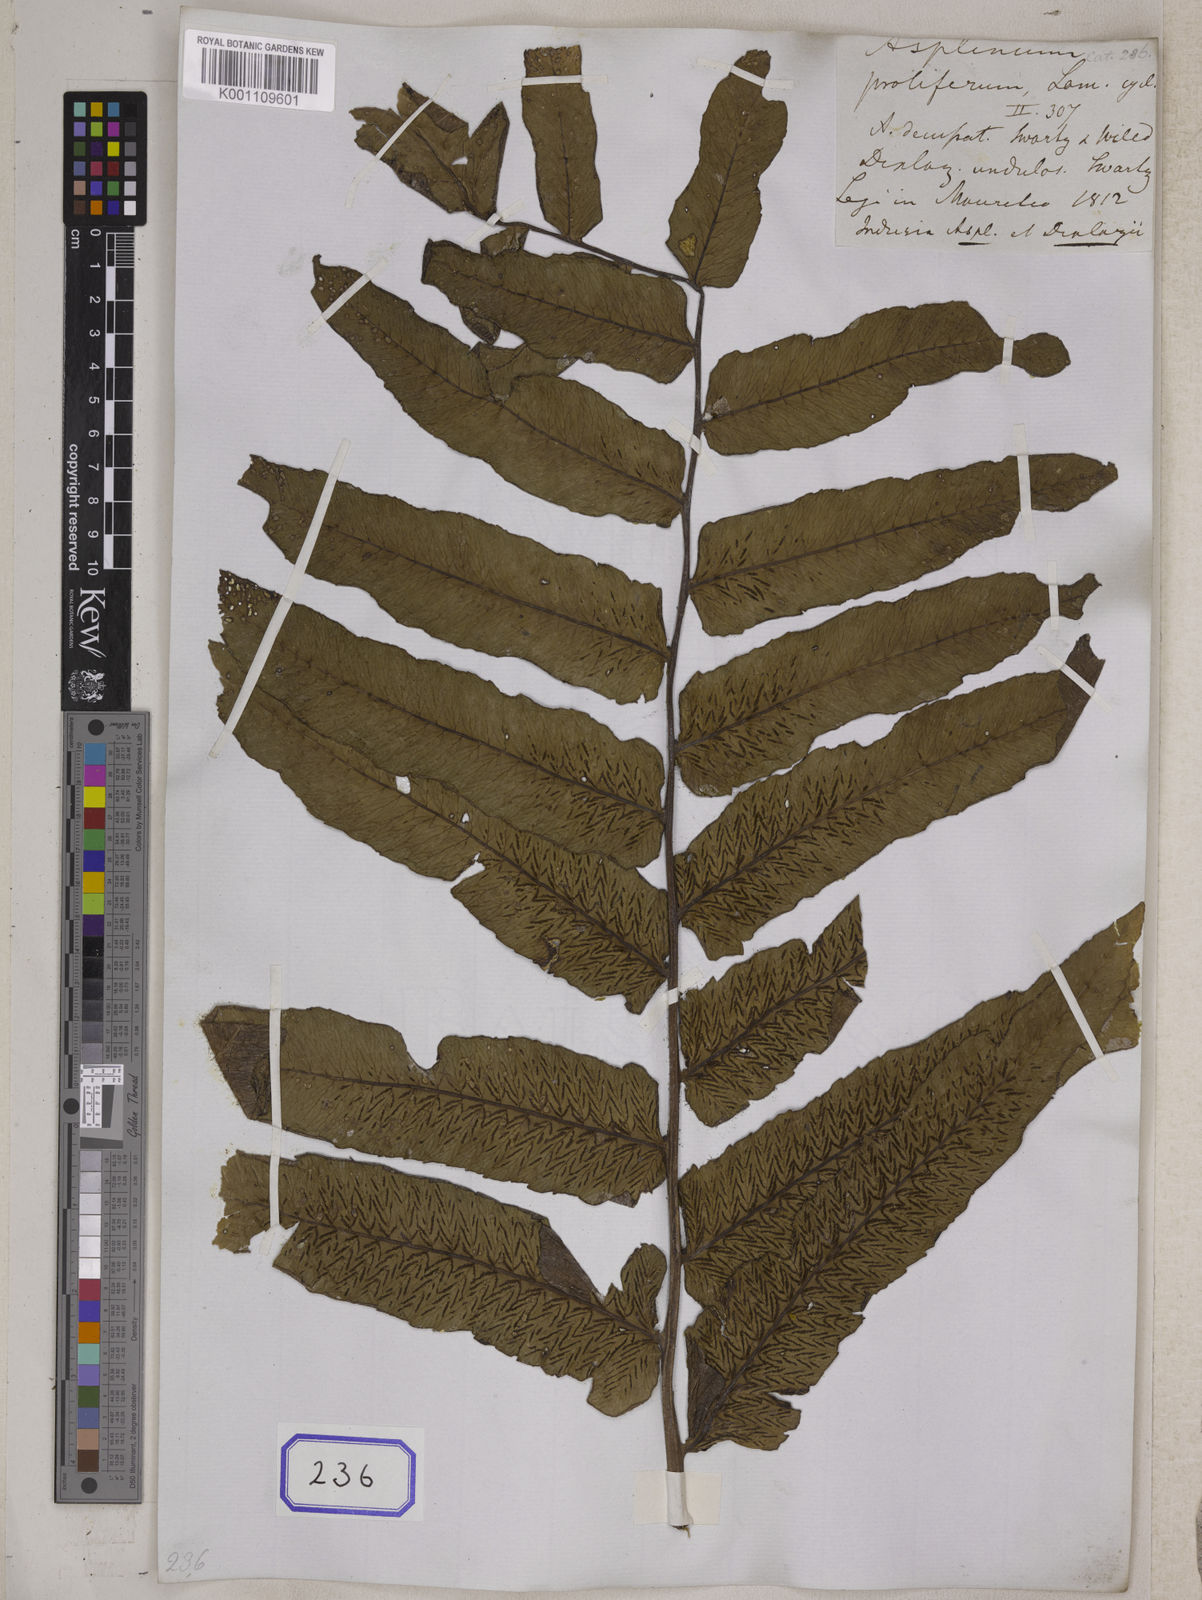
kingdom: Plantae
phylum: Tracheophyta
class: Polypodiopsida
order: Polypodiales
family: Athyriaceae
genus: Diplazium
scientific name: Diplazium proliferum
